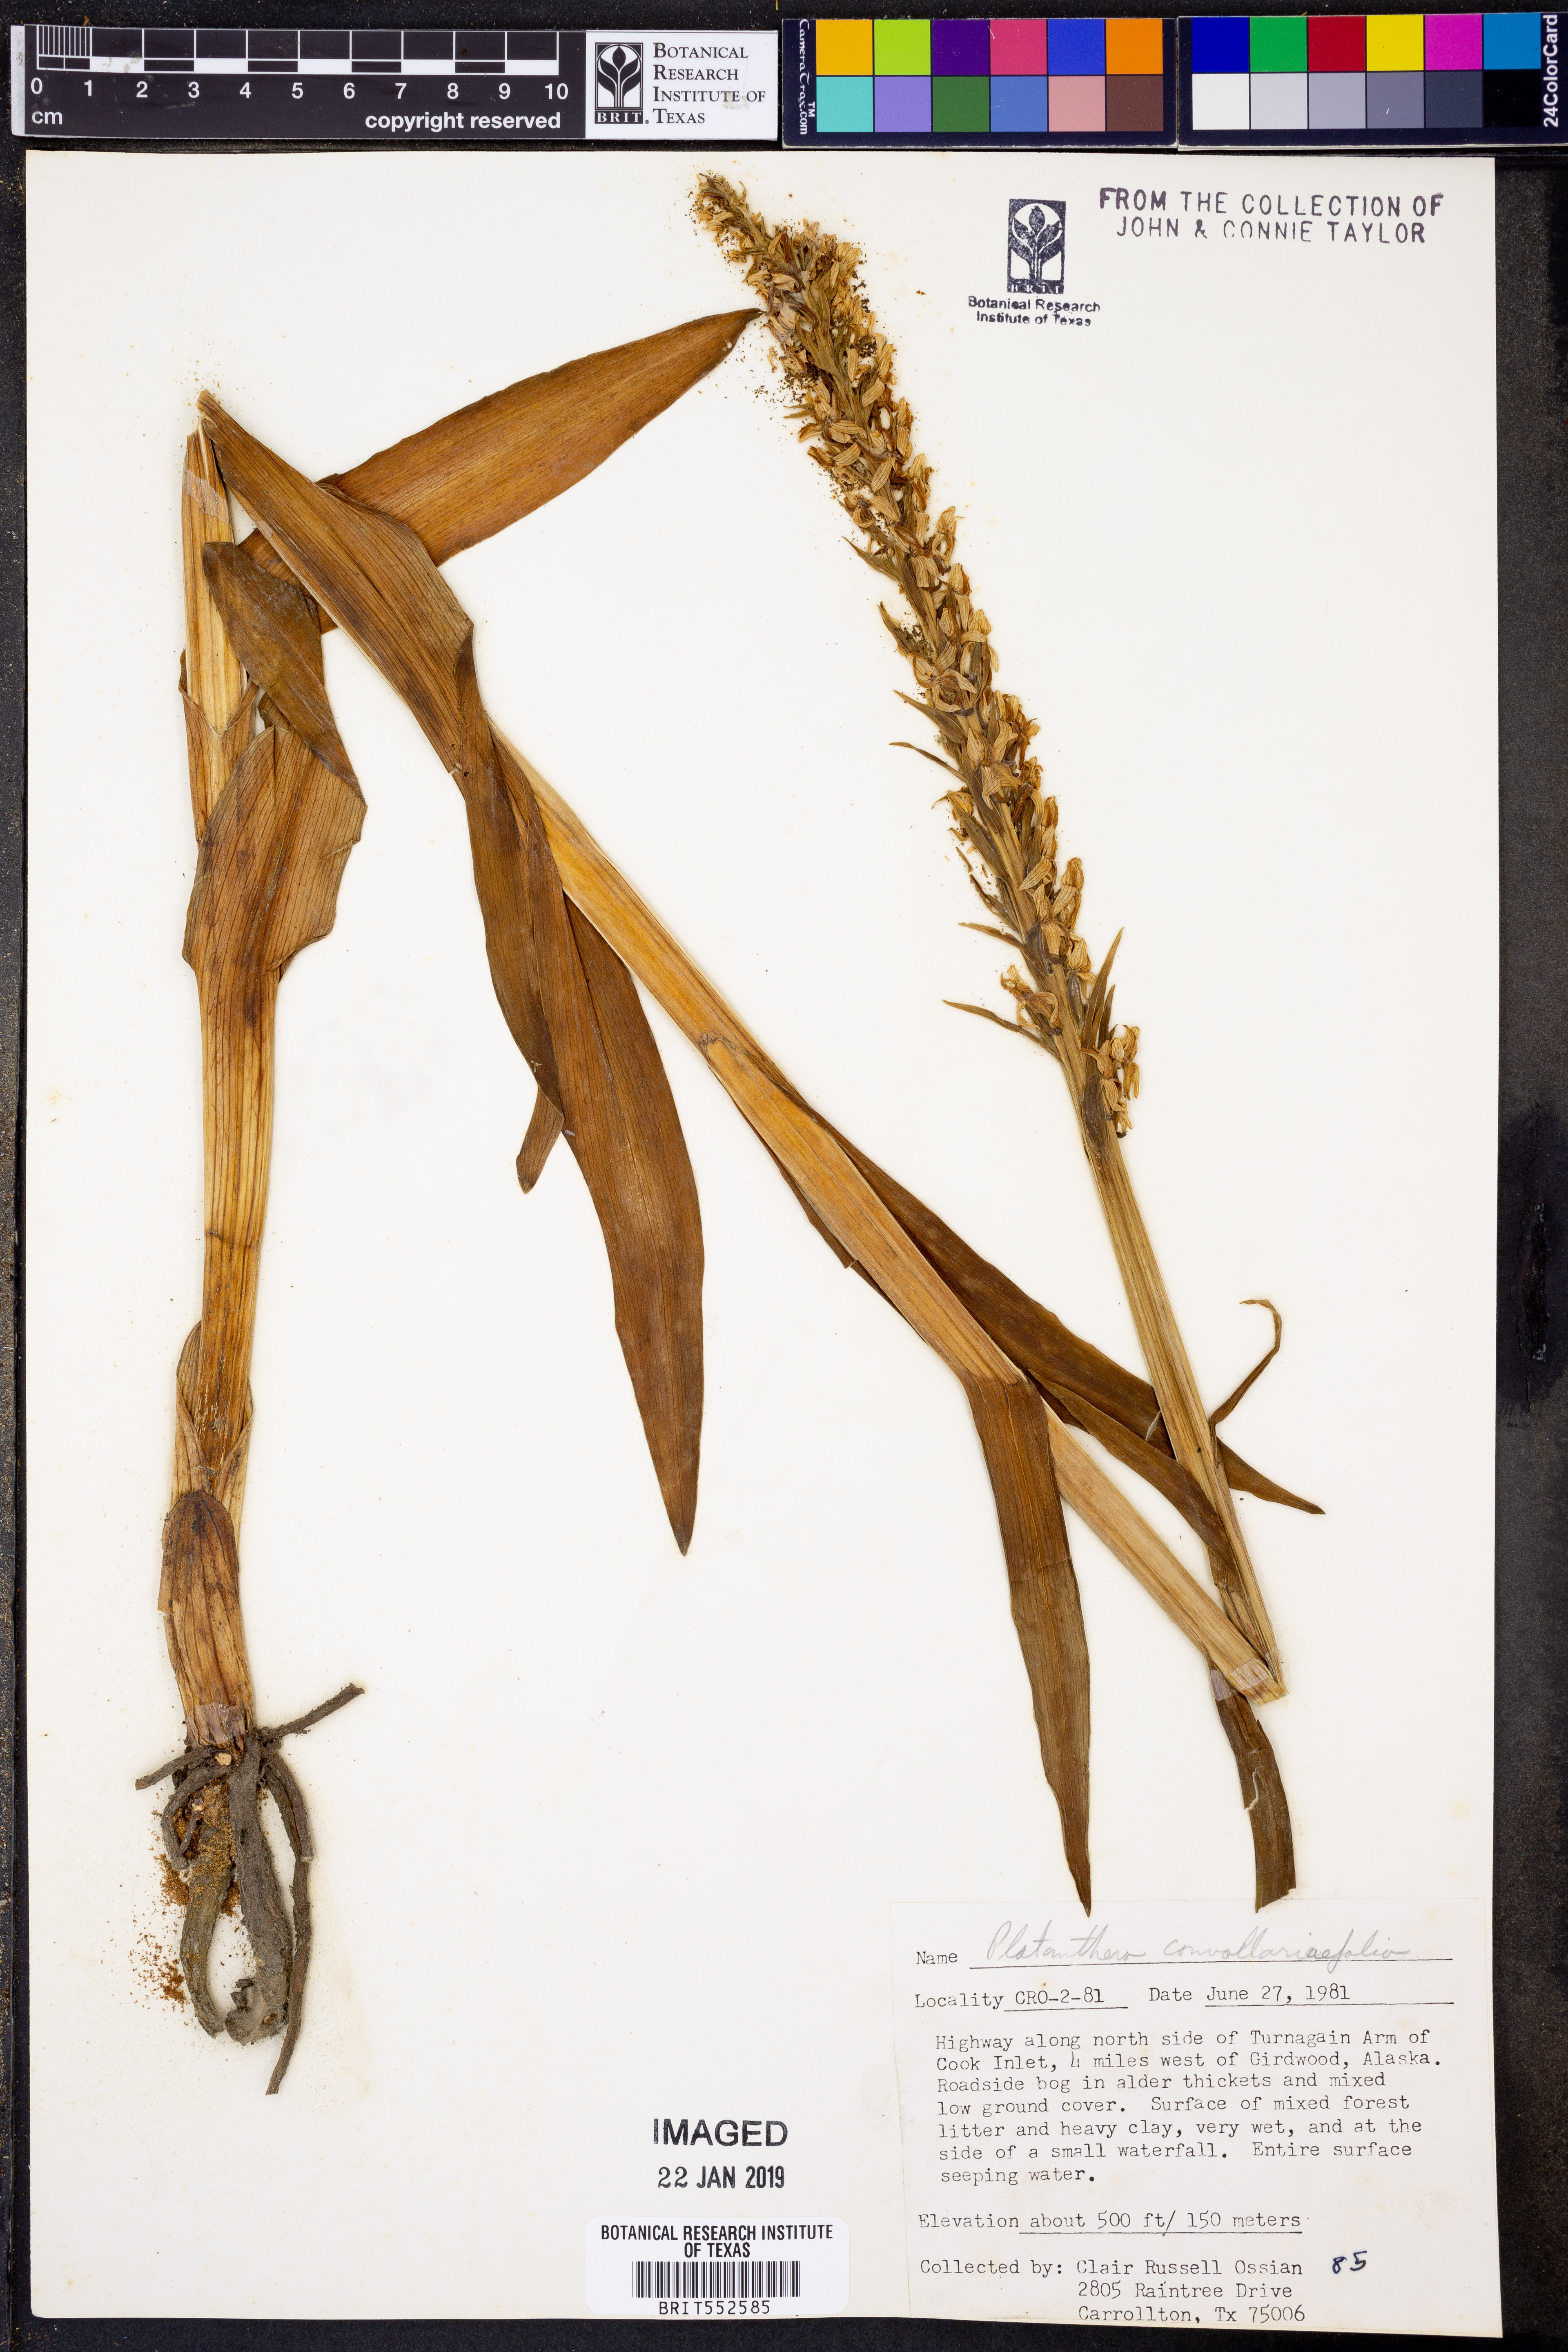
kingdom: Plantae
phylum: Tracheophyta
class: Liliopsida
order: Asparagales
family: Orchidaceae
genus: Platanthera
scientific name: Platanthera convallariifolia
